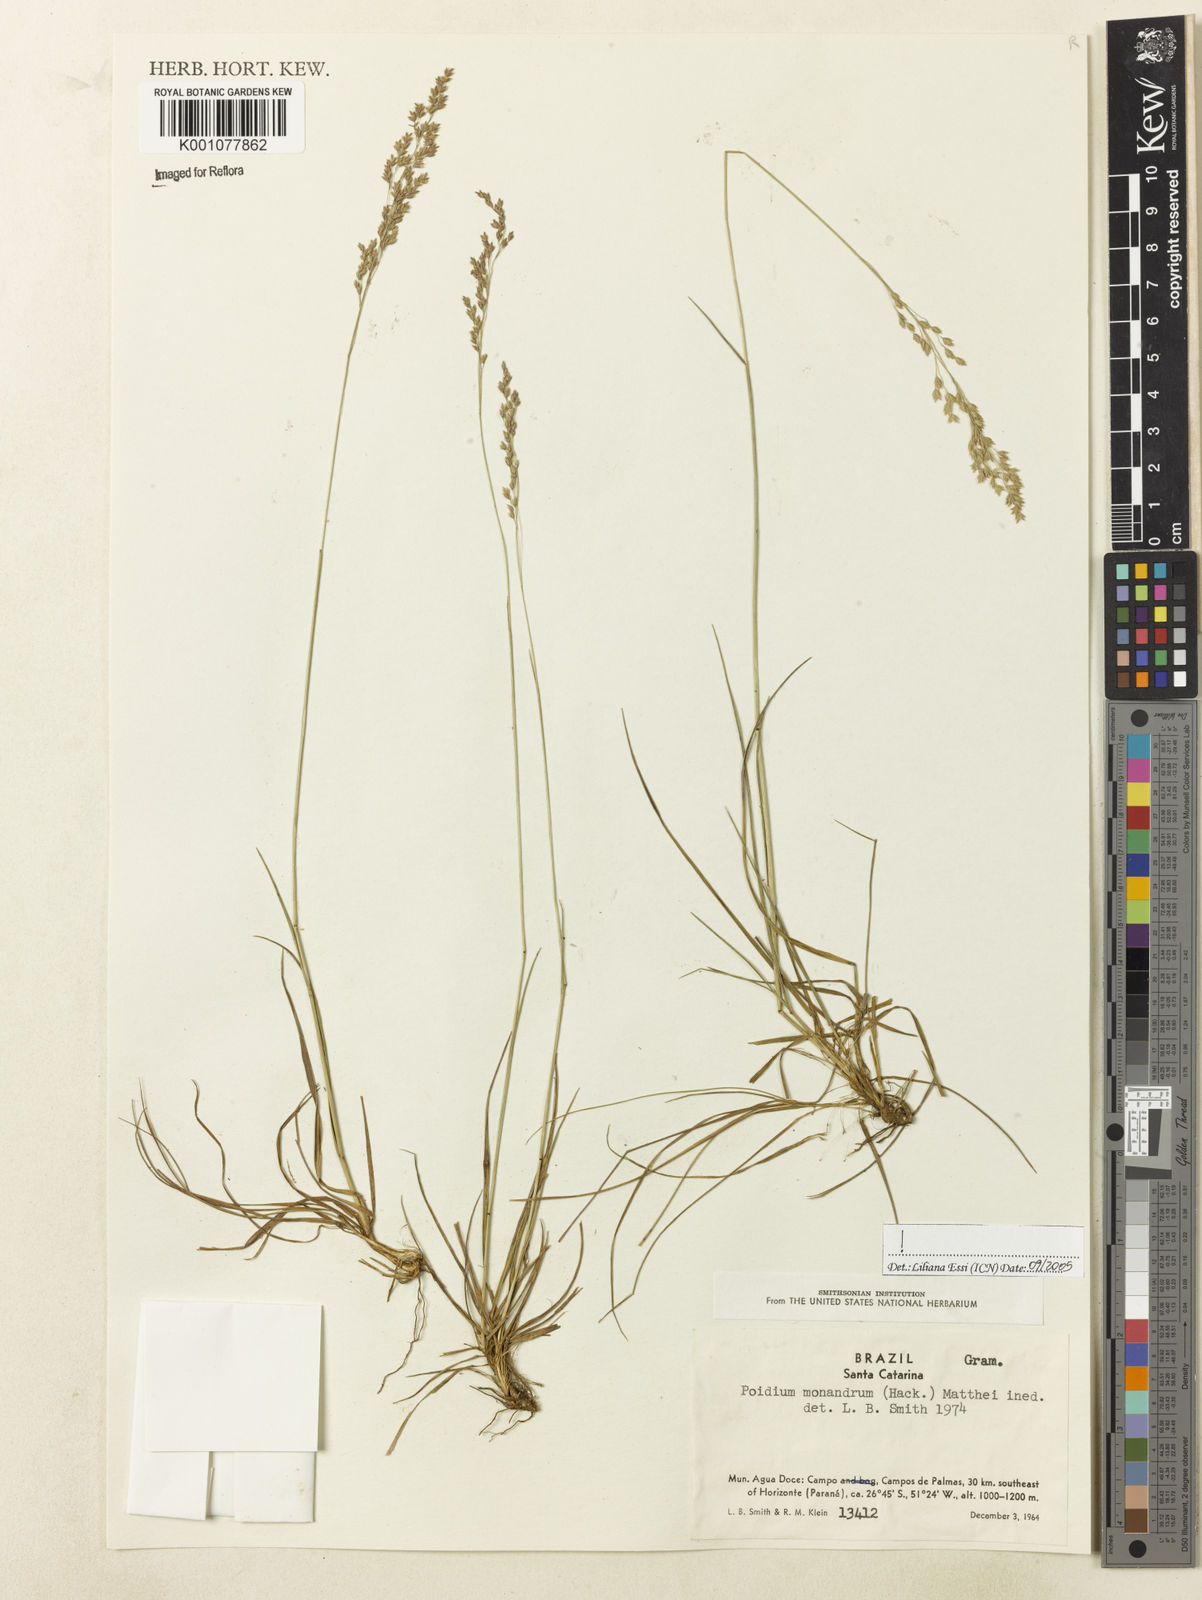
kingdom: Plantae
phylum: Tracheophyta
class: Liliopsida
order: Poales
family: Poaceae
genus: Poidium
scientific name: Poidium monandrum
